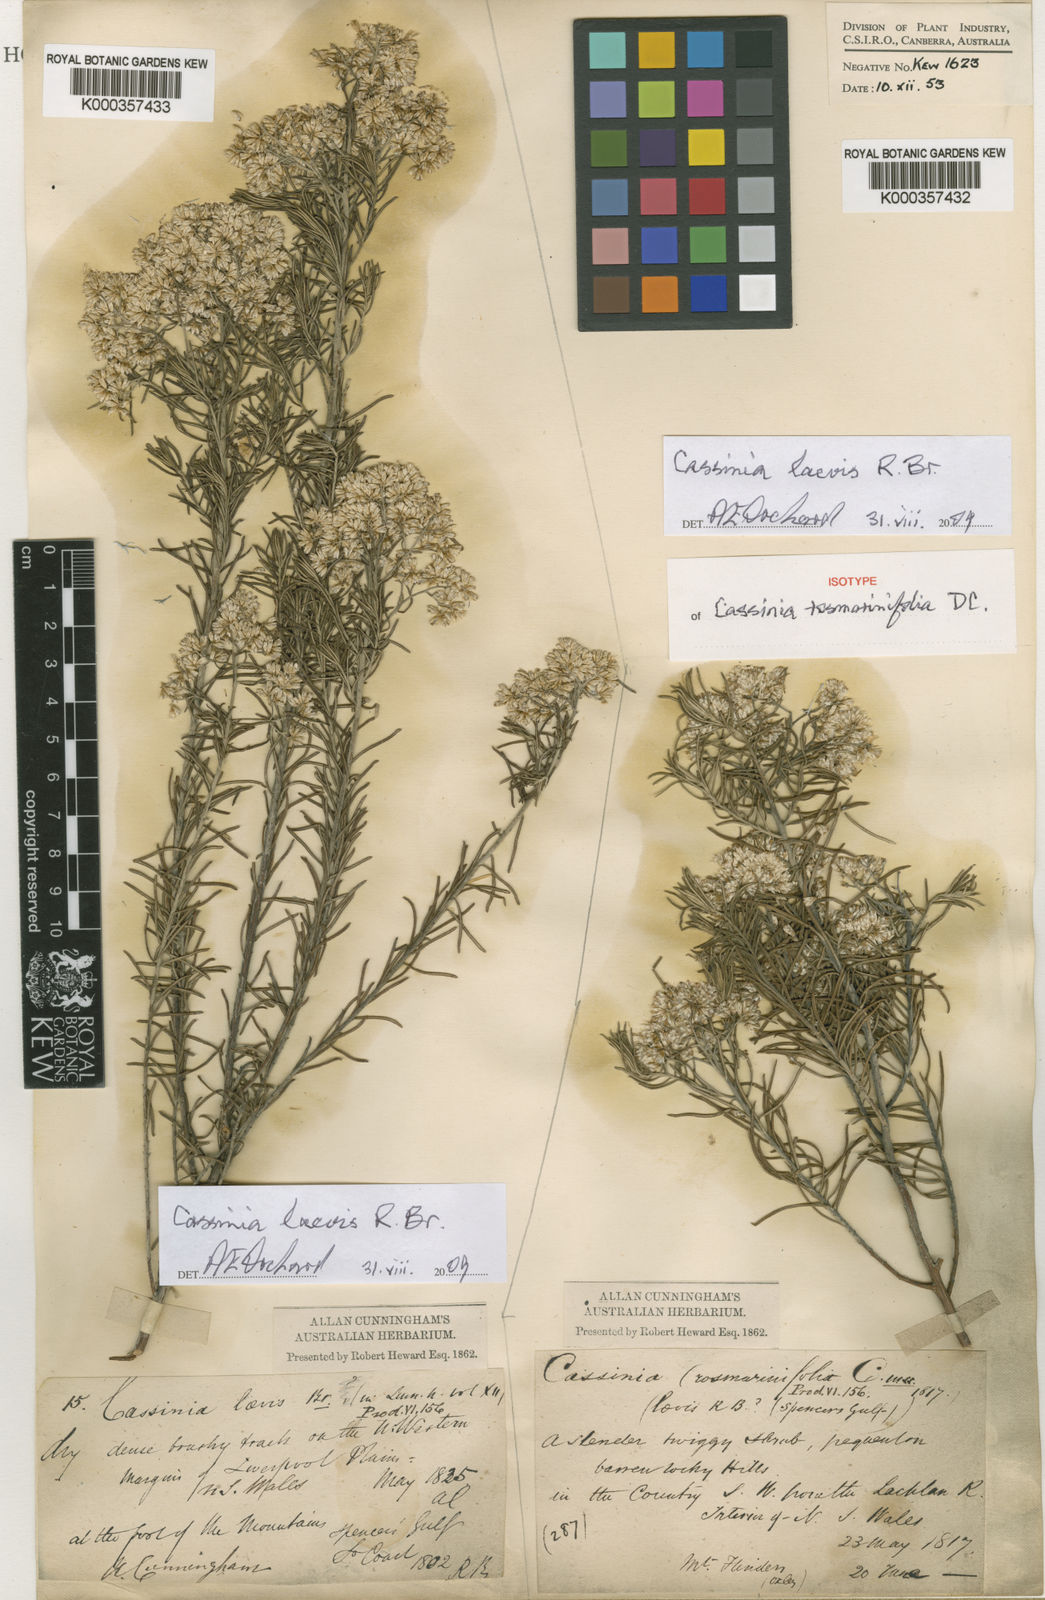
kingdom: Plantae
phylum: Tracheophyta
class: Magnoliopsida
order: Asterales
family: Asteraceae
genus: Cassinia
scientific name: Cassinia laevis
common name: Coughbush
